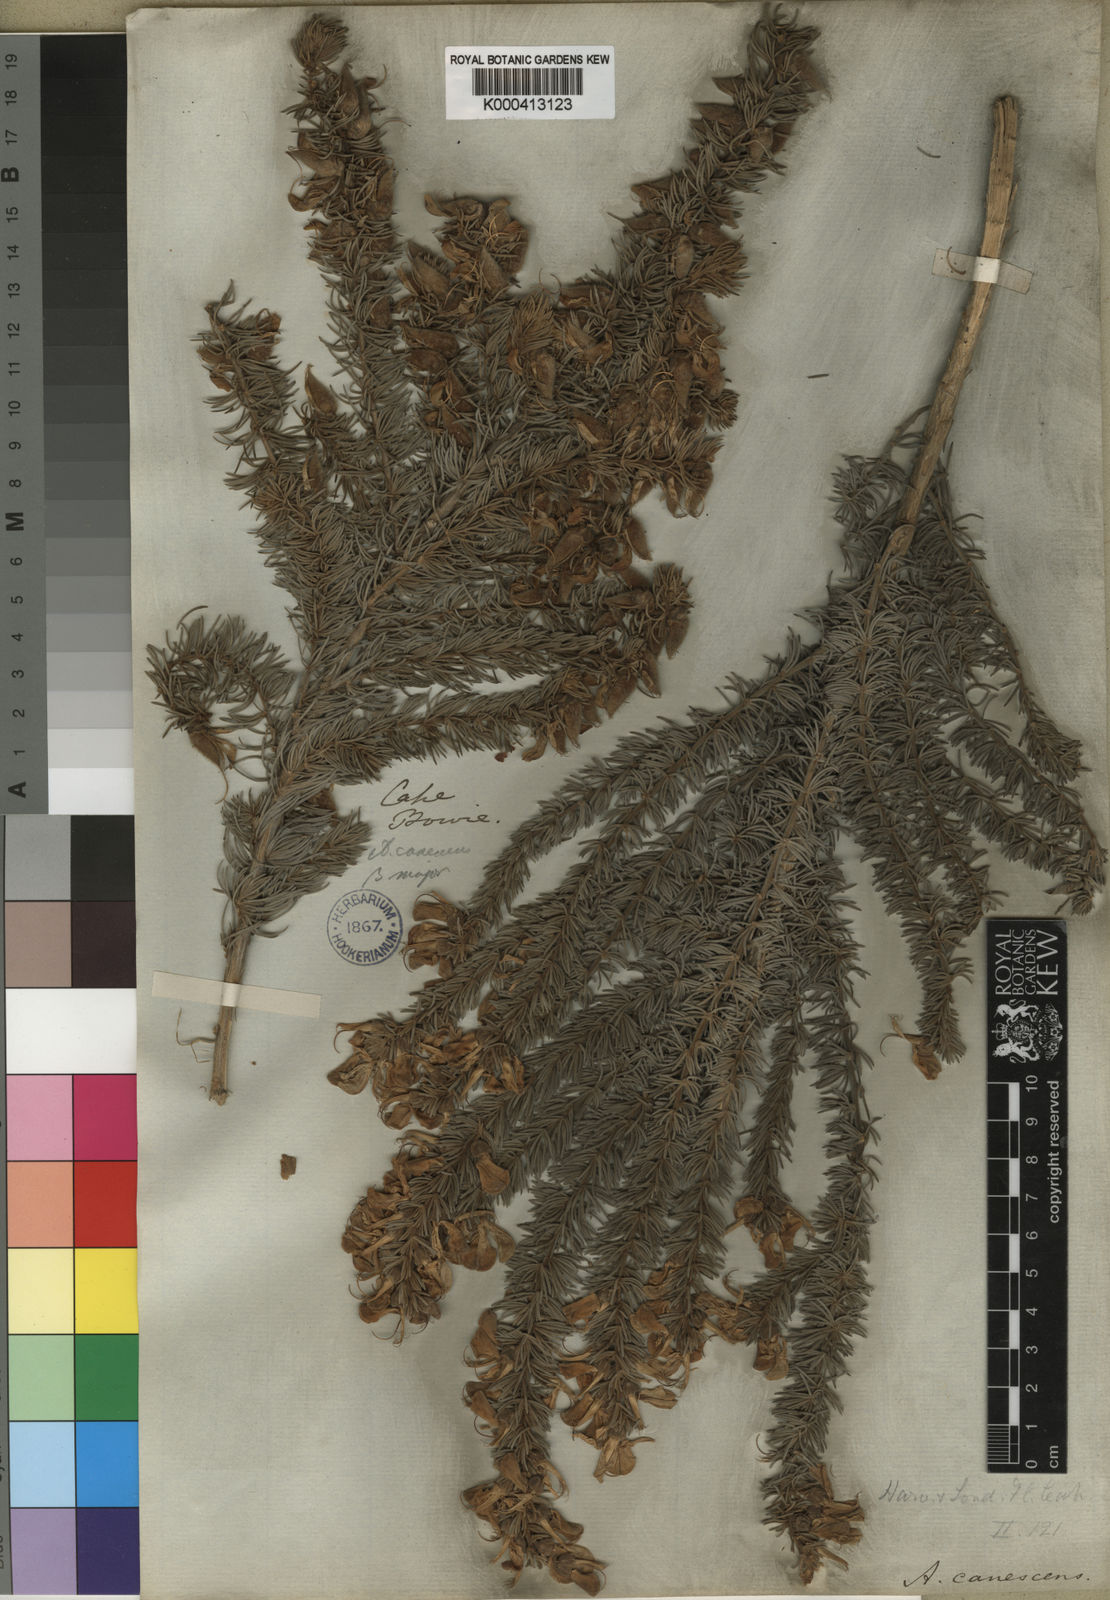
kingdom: Plantae
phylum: Tracheophyta
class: Magnoliopsida
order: Fabales
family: Fabaceae
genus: Aspalathus
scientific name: Aspalathus bowieana
